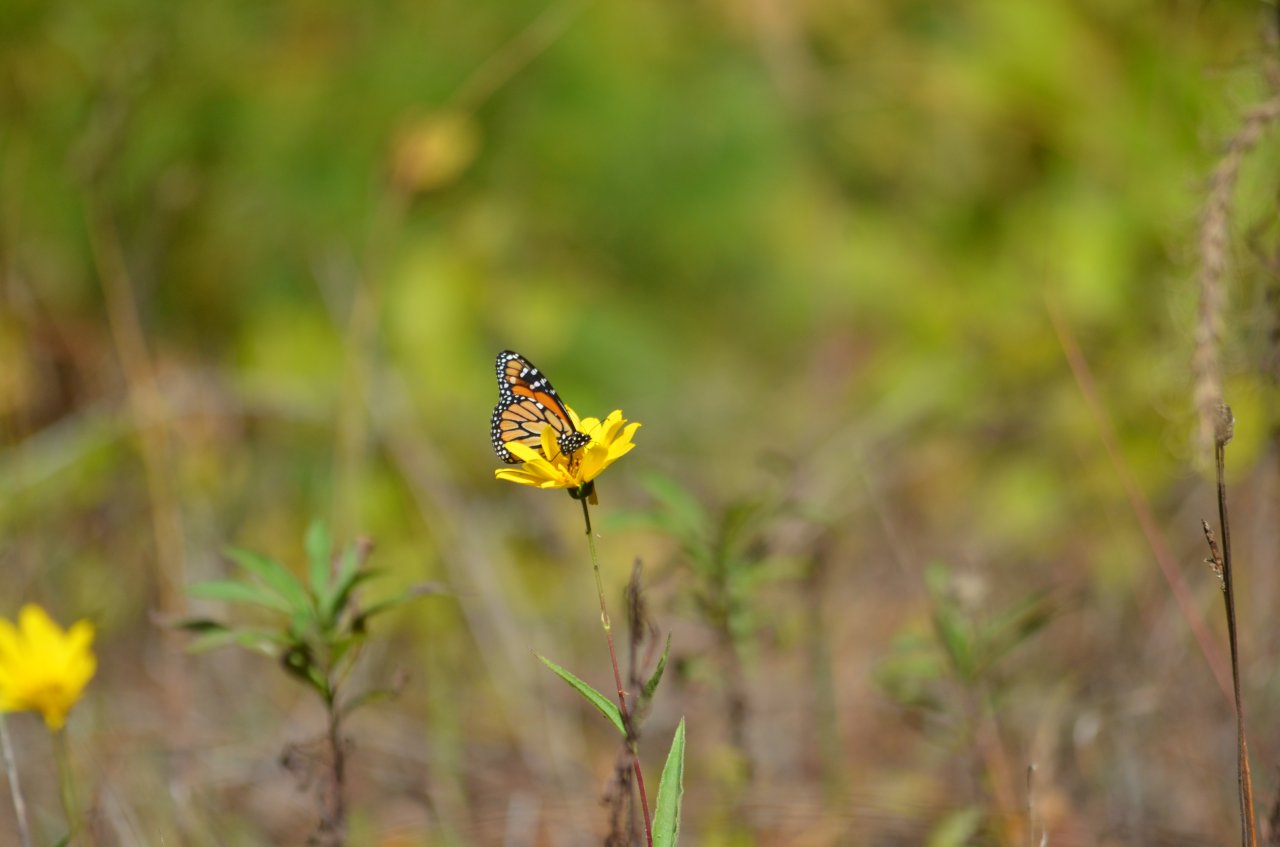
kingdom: Animalia
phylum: Arthropoda
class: Insecta
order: Lepidoptera
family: Nymphalidae
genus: Danaus
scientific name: Danaus plexippus
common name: Monarch
